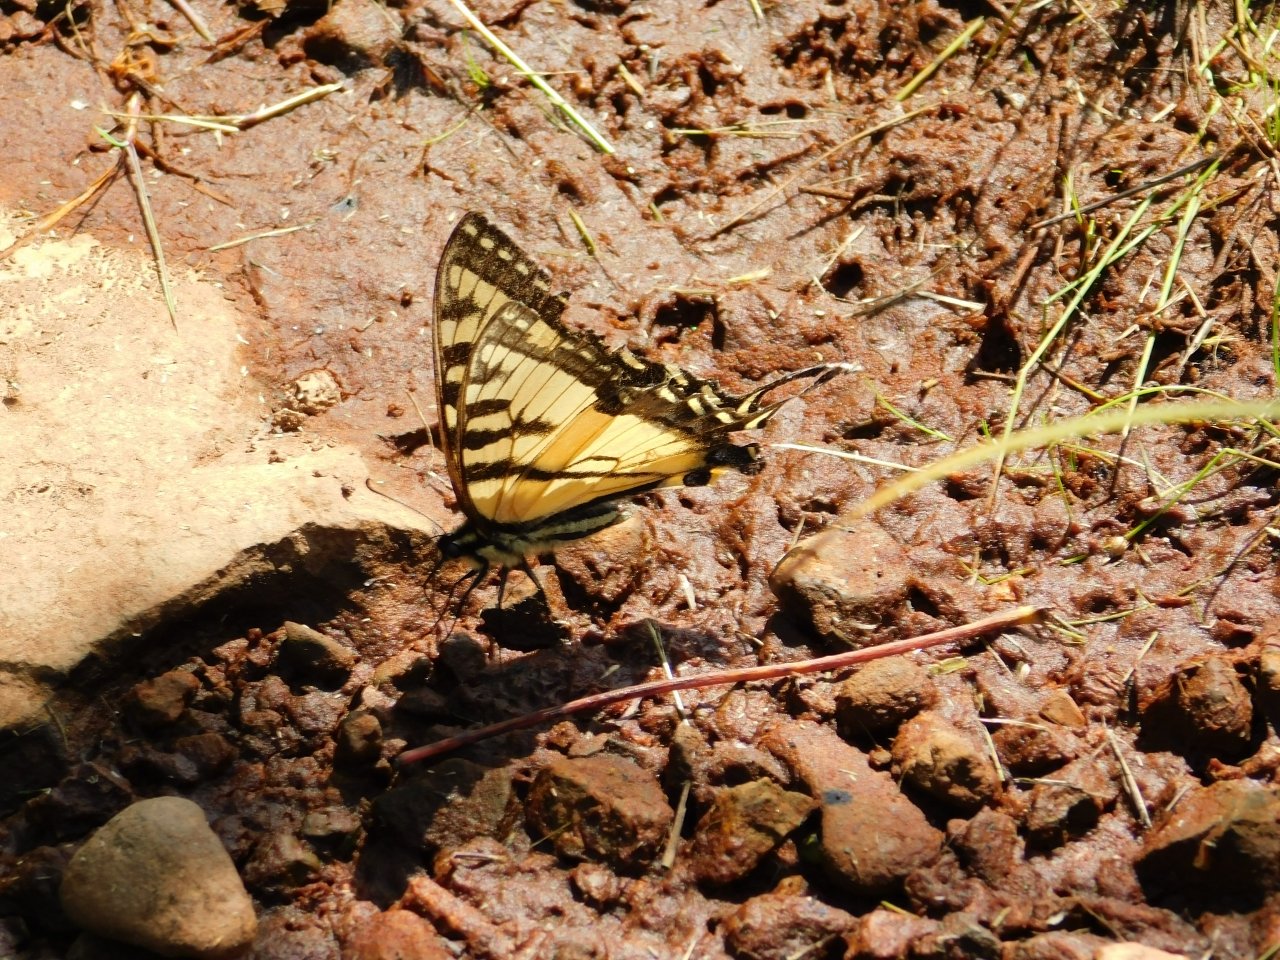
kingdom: Animalia
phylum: Arthropoda
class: Insecta
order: Lepidoptera
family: Papilionidae
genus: Pterourus
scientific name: Pterourus canadensis
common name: Canadian Tiger Swallowtail
